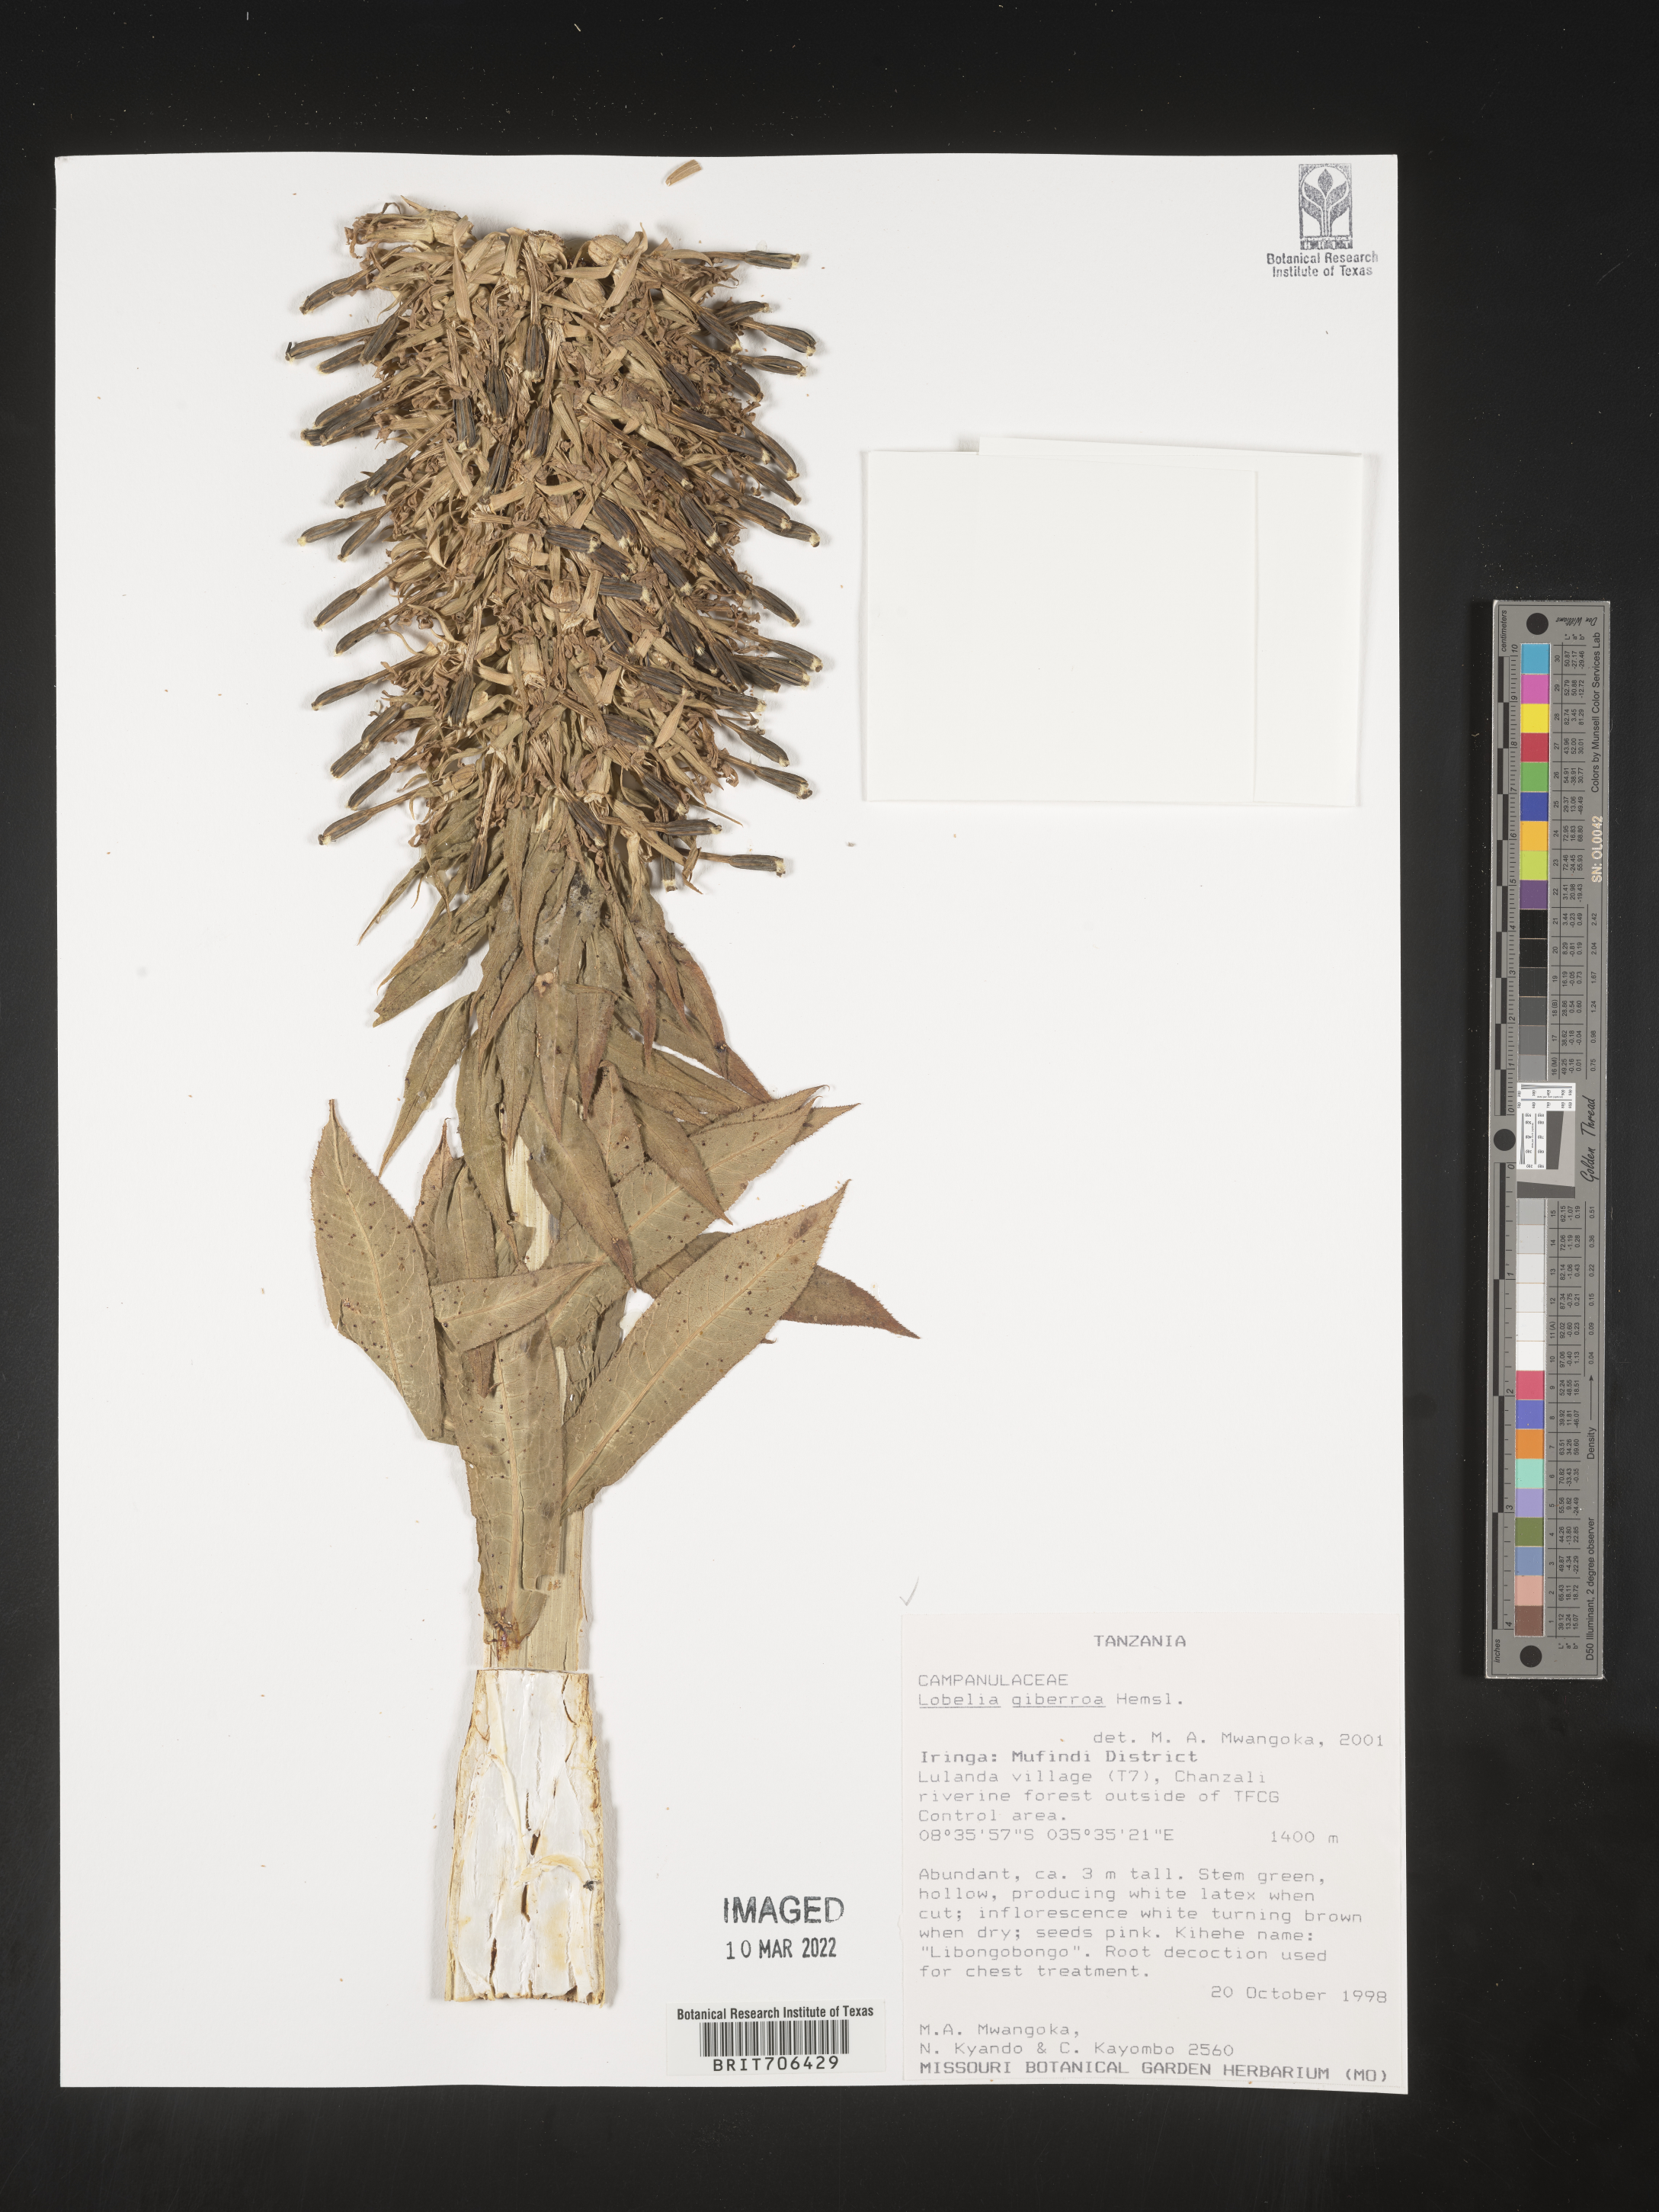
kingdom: Plantae
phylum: Tracheophyta
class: Magnoliopsida
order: Asterales
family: Campanulaceae
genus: Lobelia
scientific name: Lobelia
